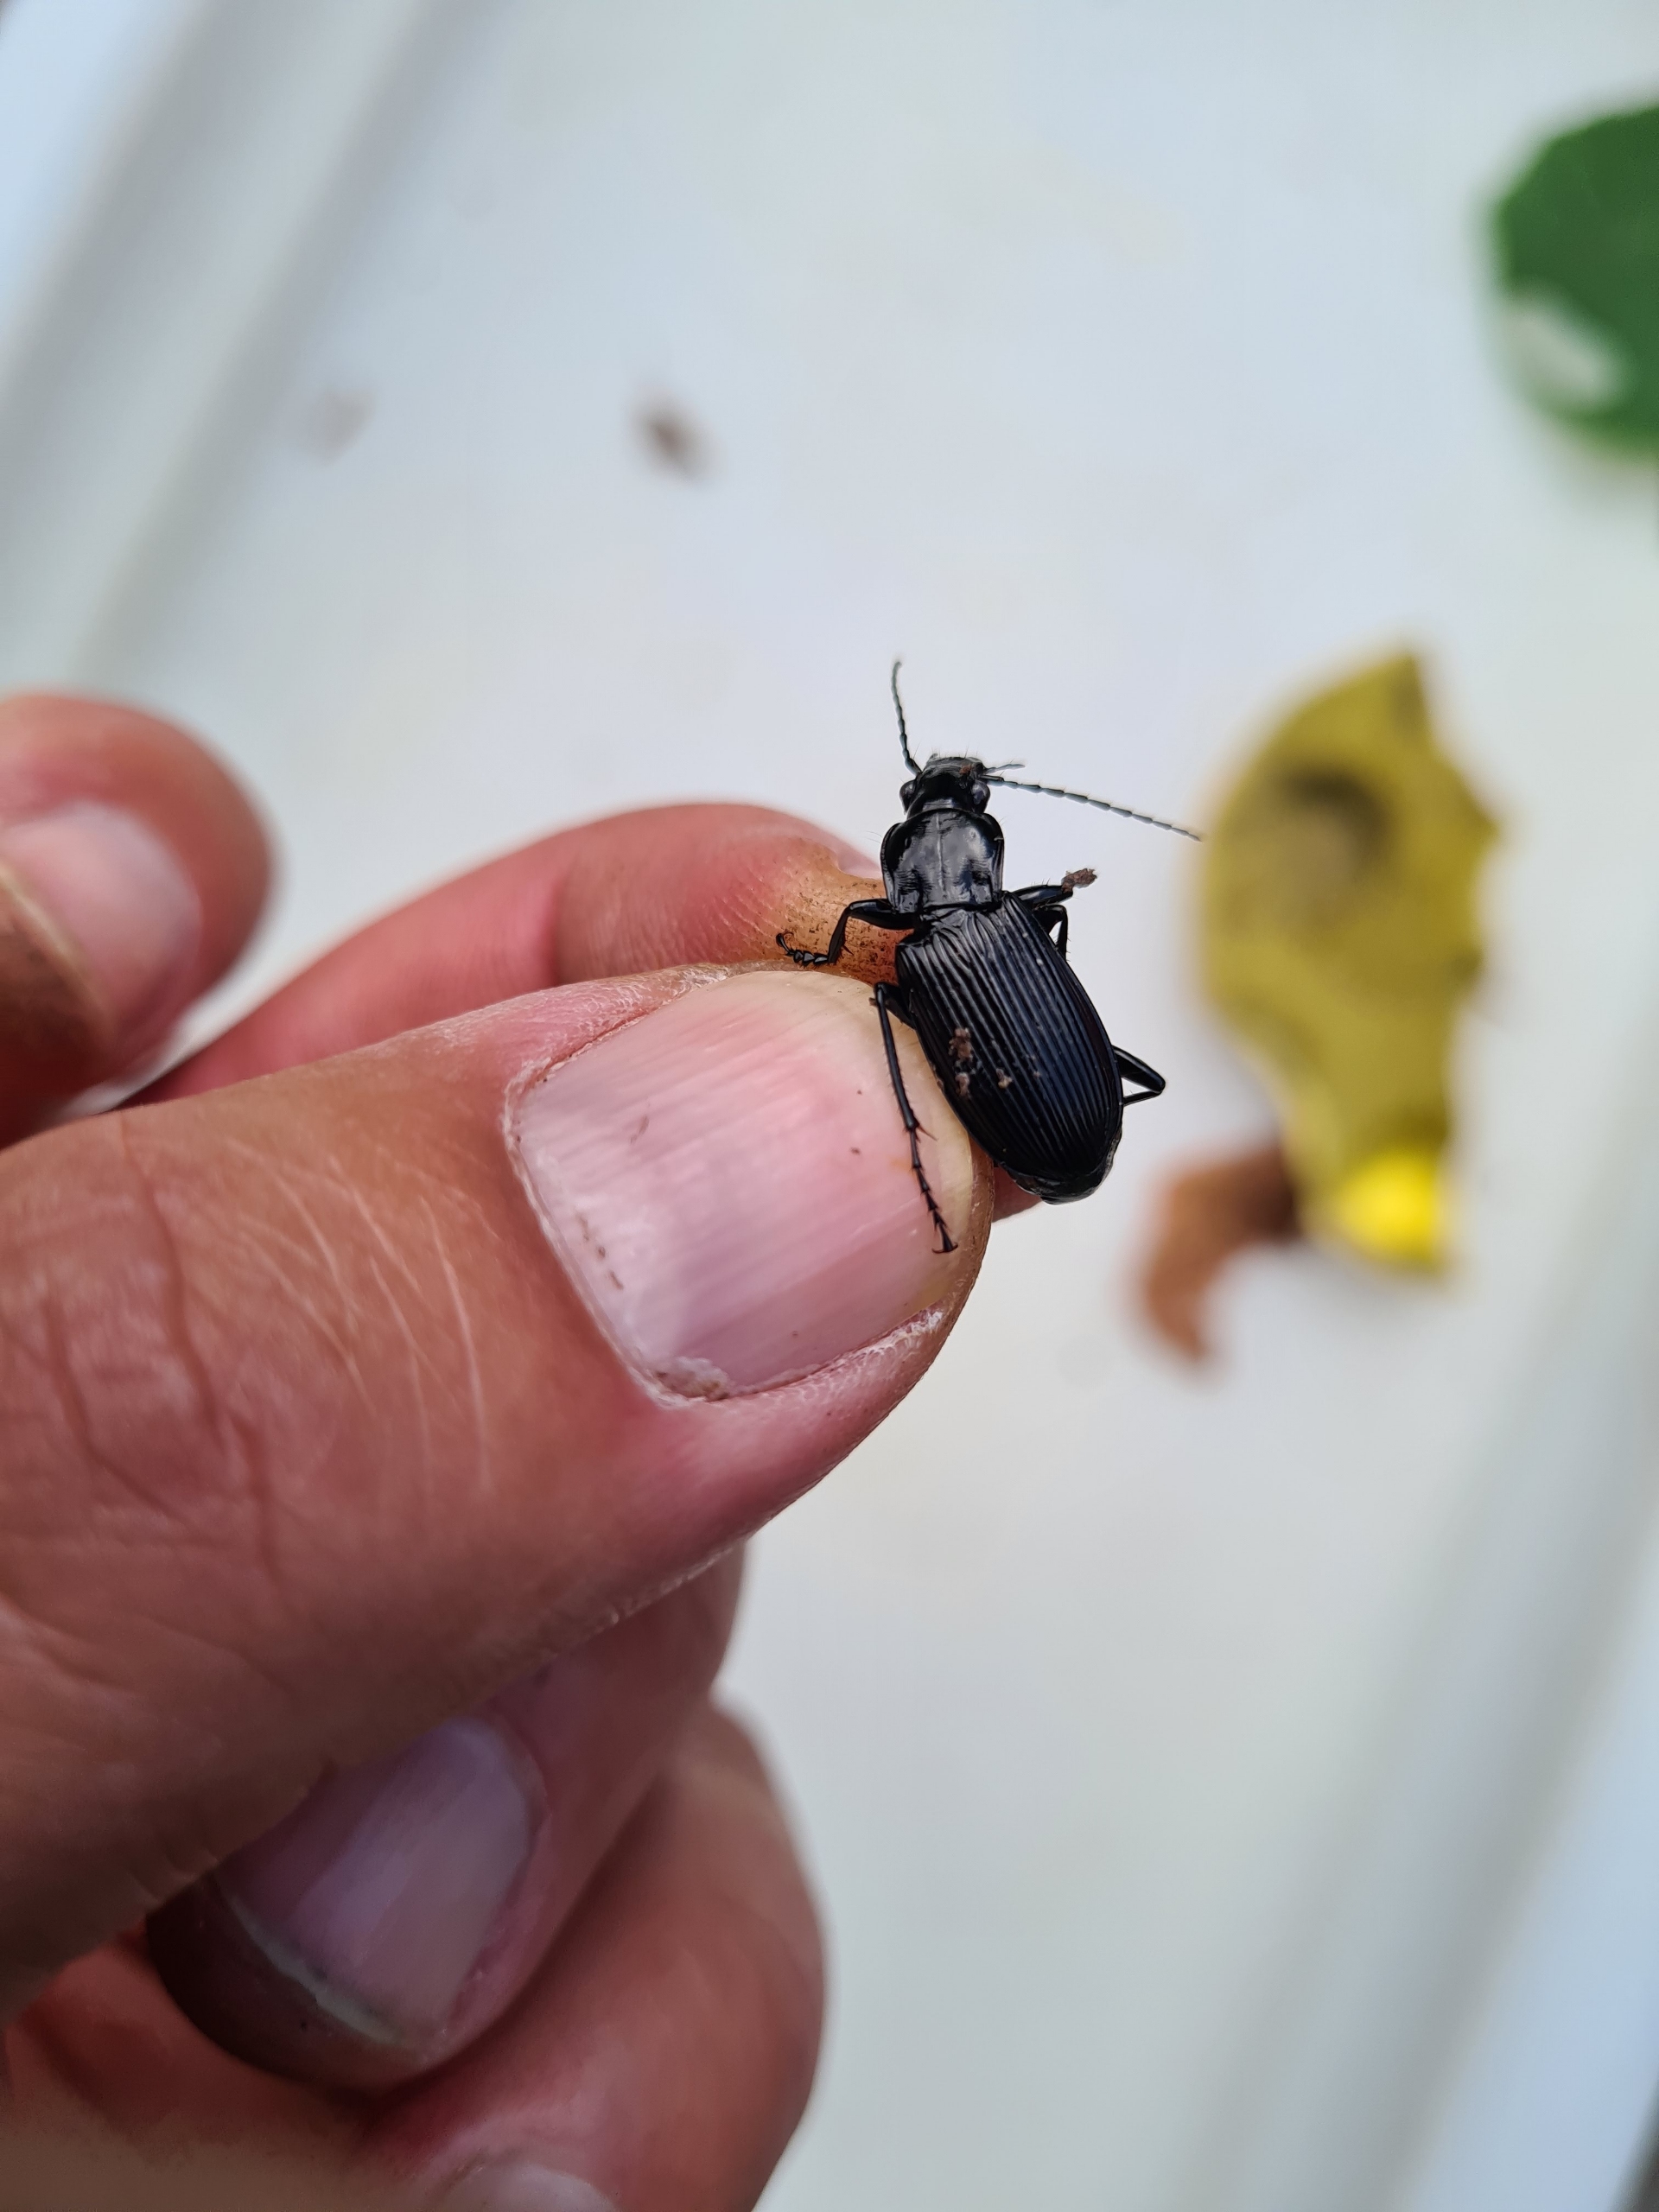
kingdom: Animalia
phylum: Arthropoda
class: Insecta
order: Coleoptera
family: Carabidae
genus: Pterostichus
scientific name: Pterostichus niger
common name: Skovjordløber
